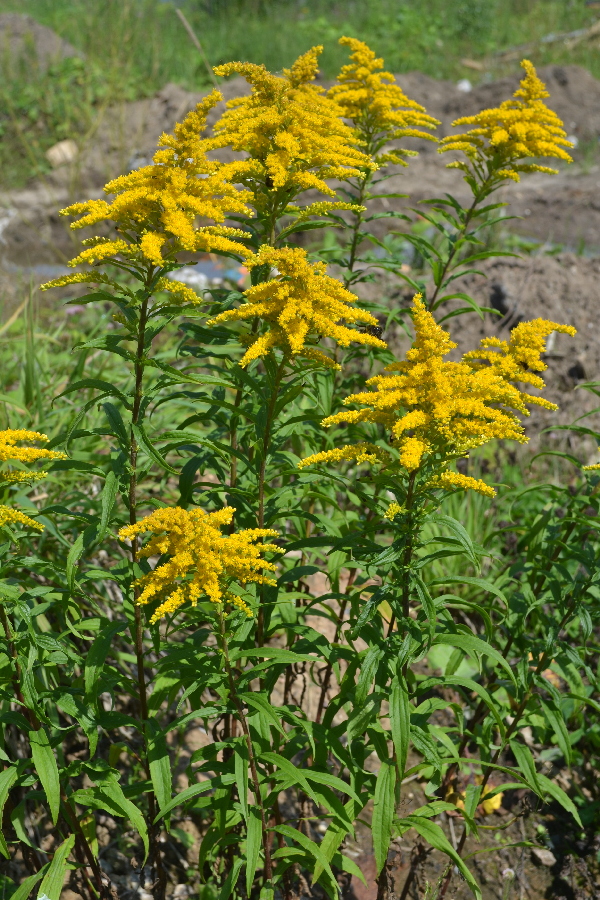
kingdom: Plantae
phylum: Tracheophyta
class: Magnoliopsida
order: Asterales
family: Asteraceae
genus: Solidago
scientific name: Solidago gigantea
